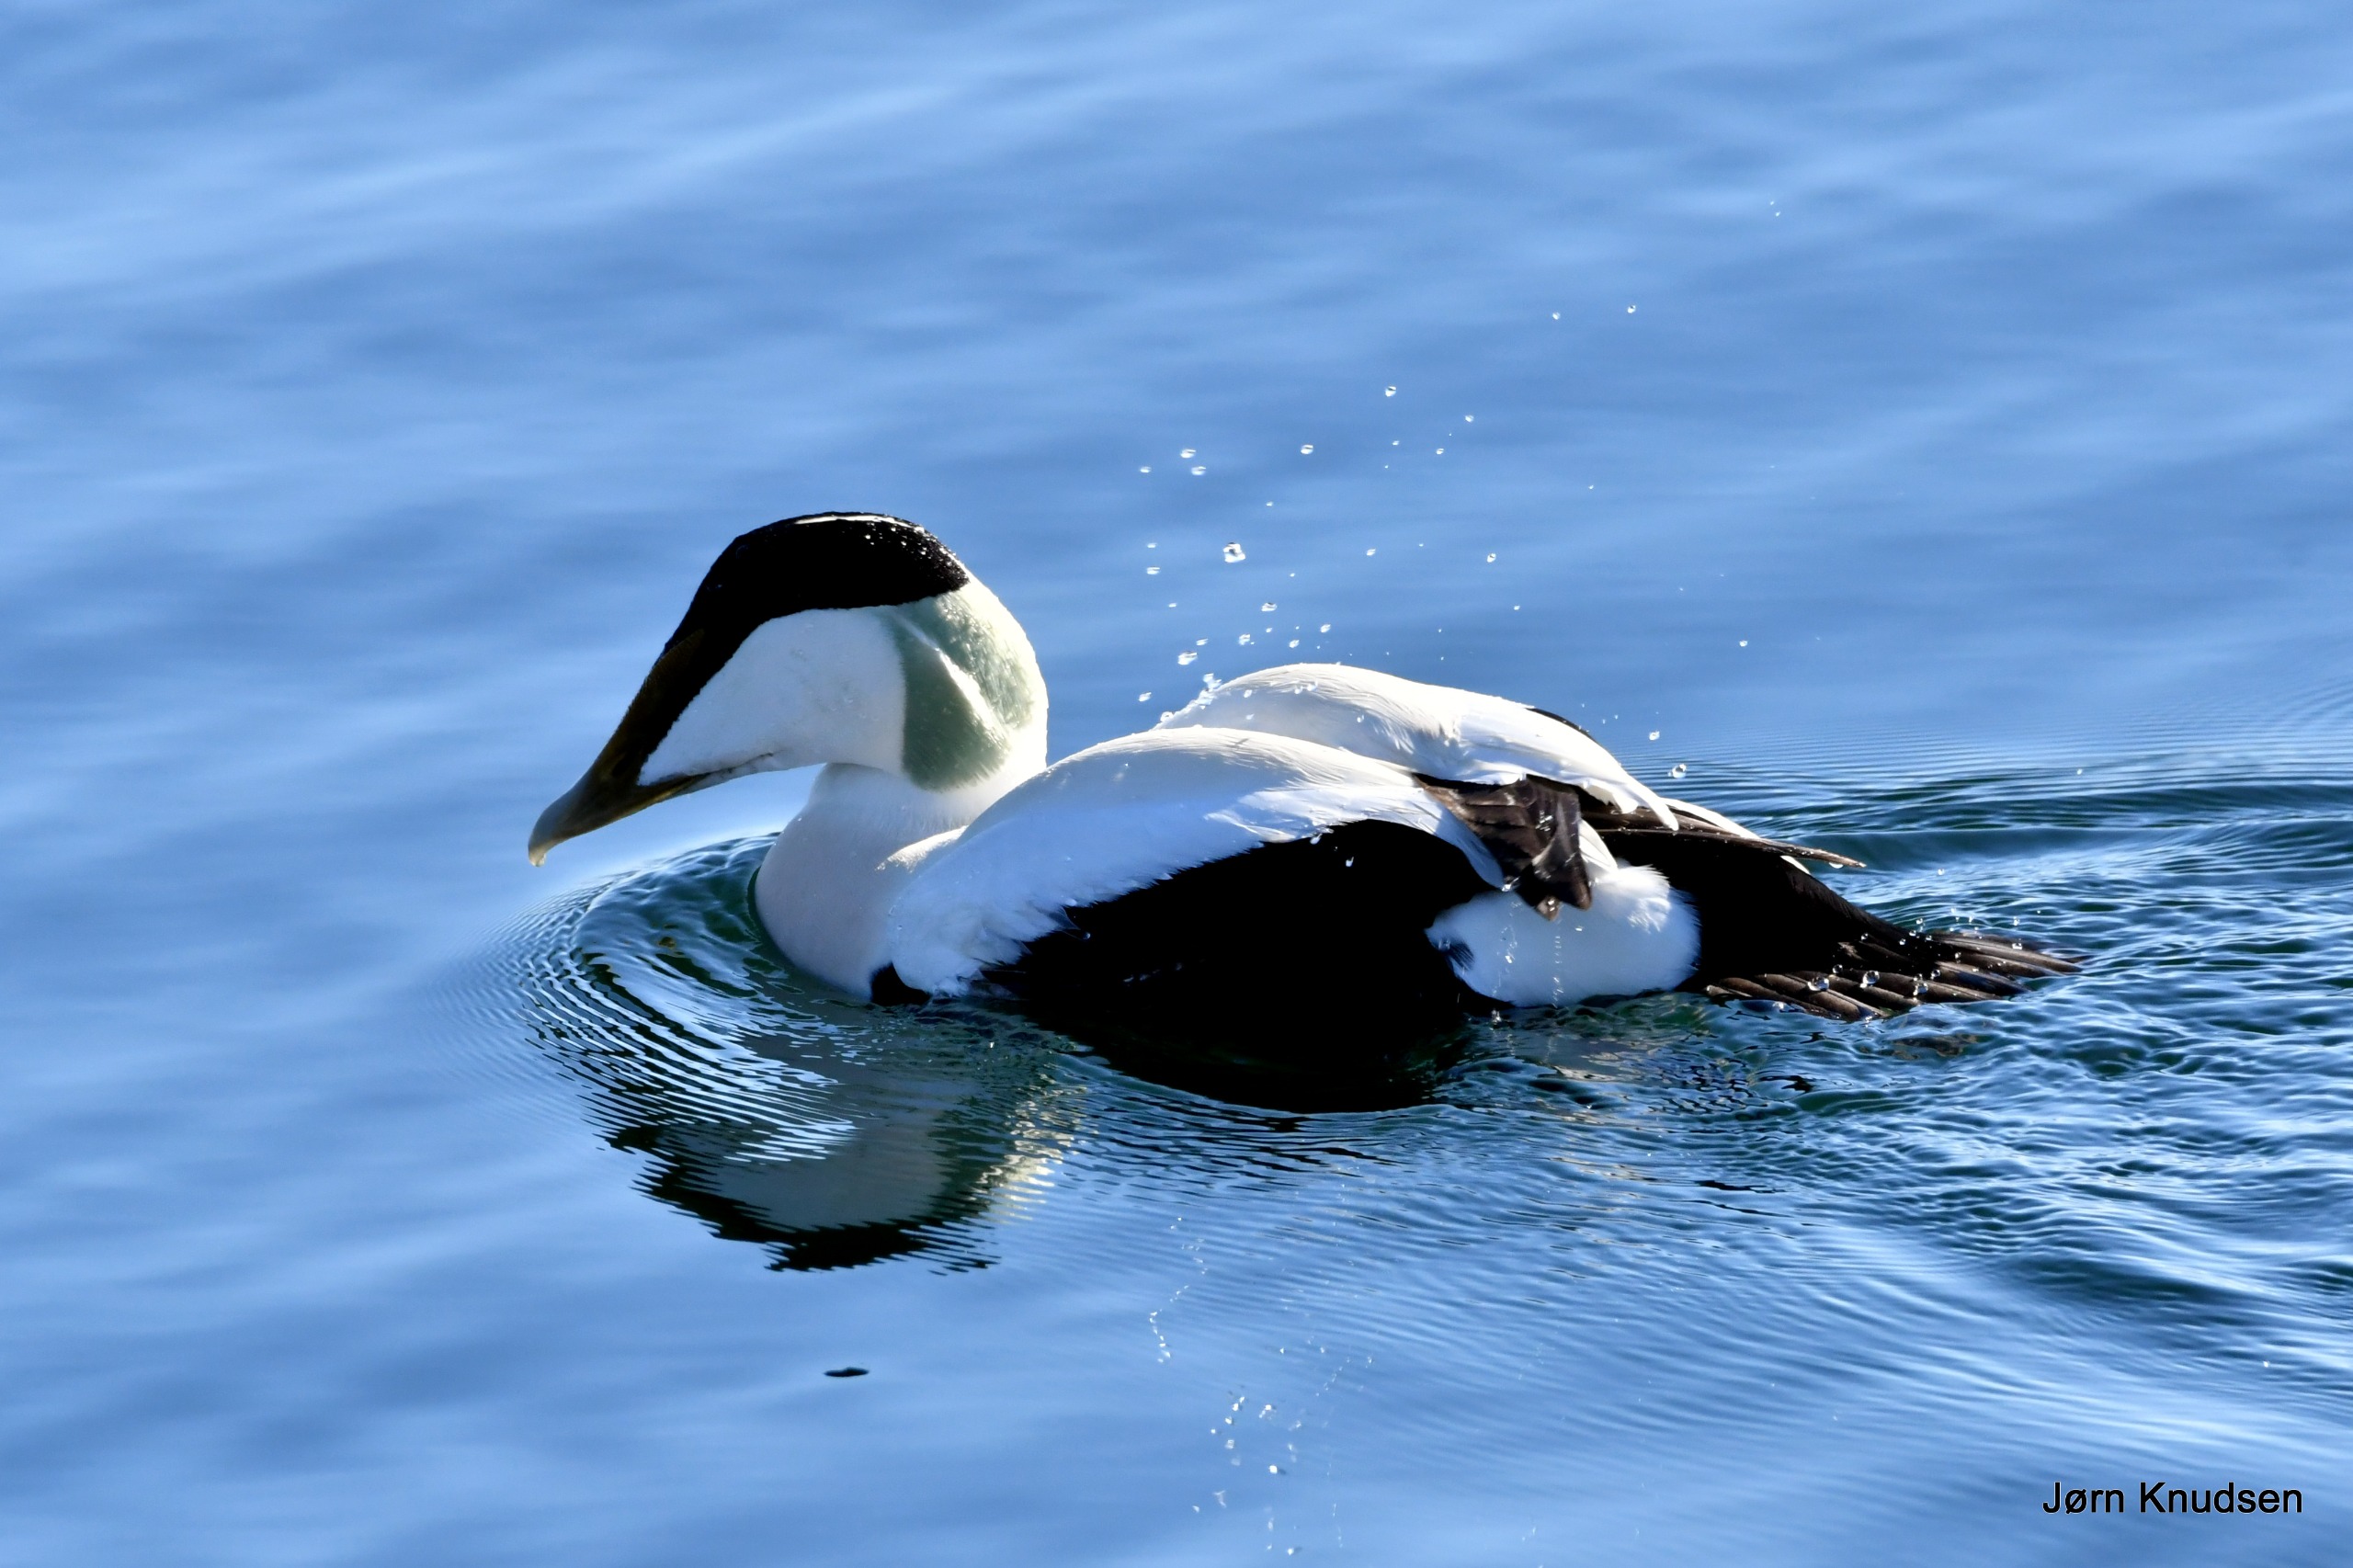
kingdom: Animalia
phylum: Chordata
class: Aves
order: Anseriformes
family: Anatidae
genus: Somateria
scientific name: Somateria mollissima
